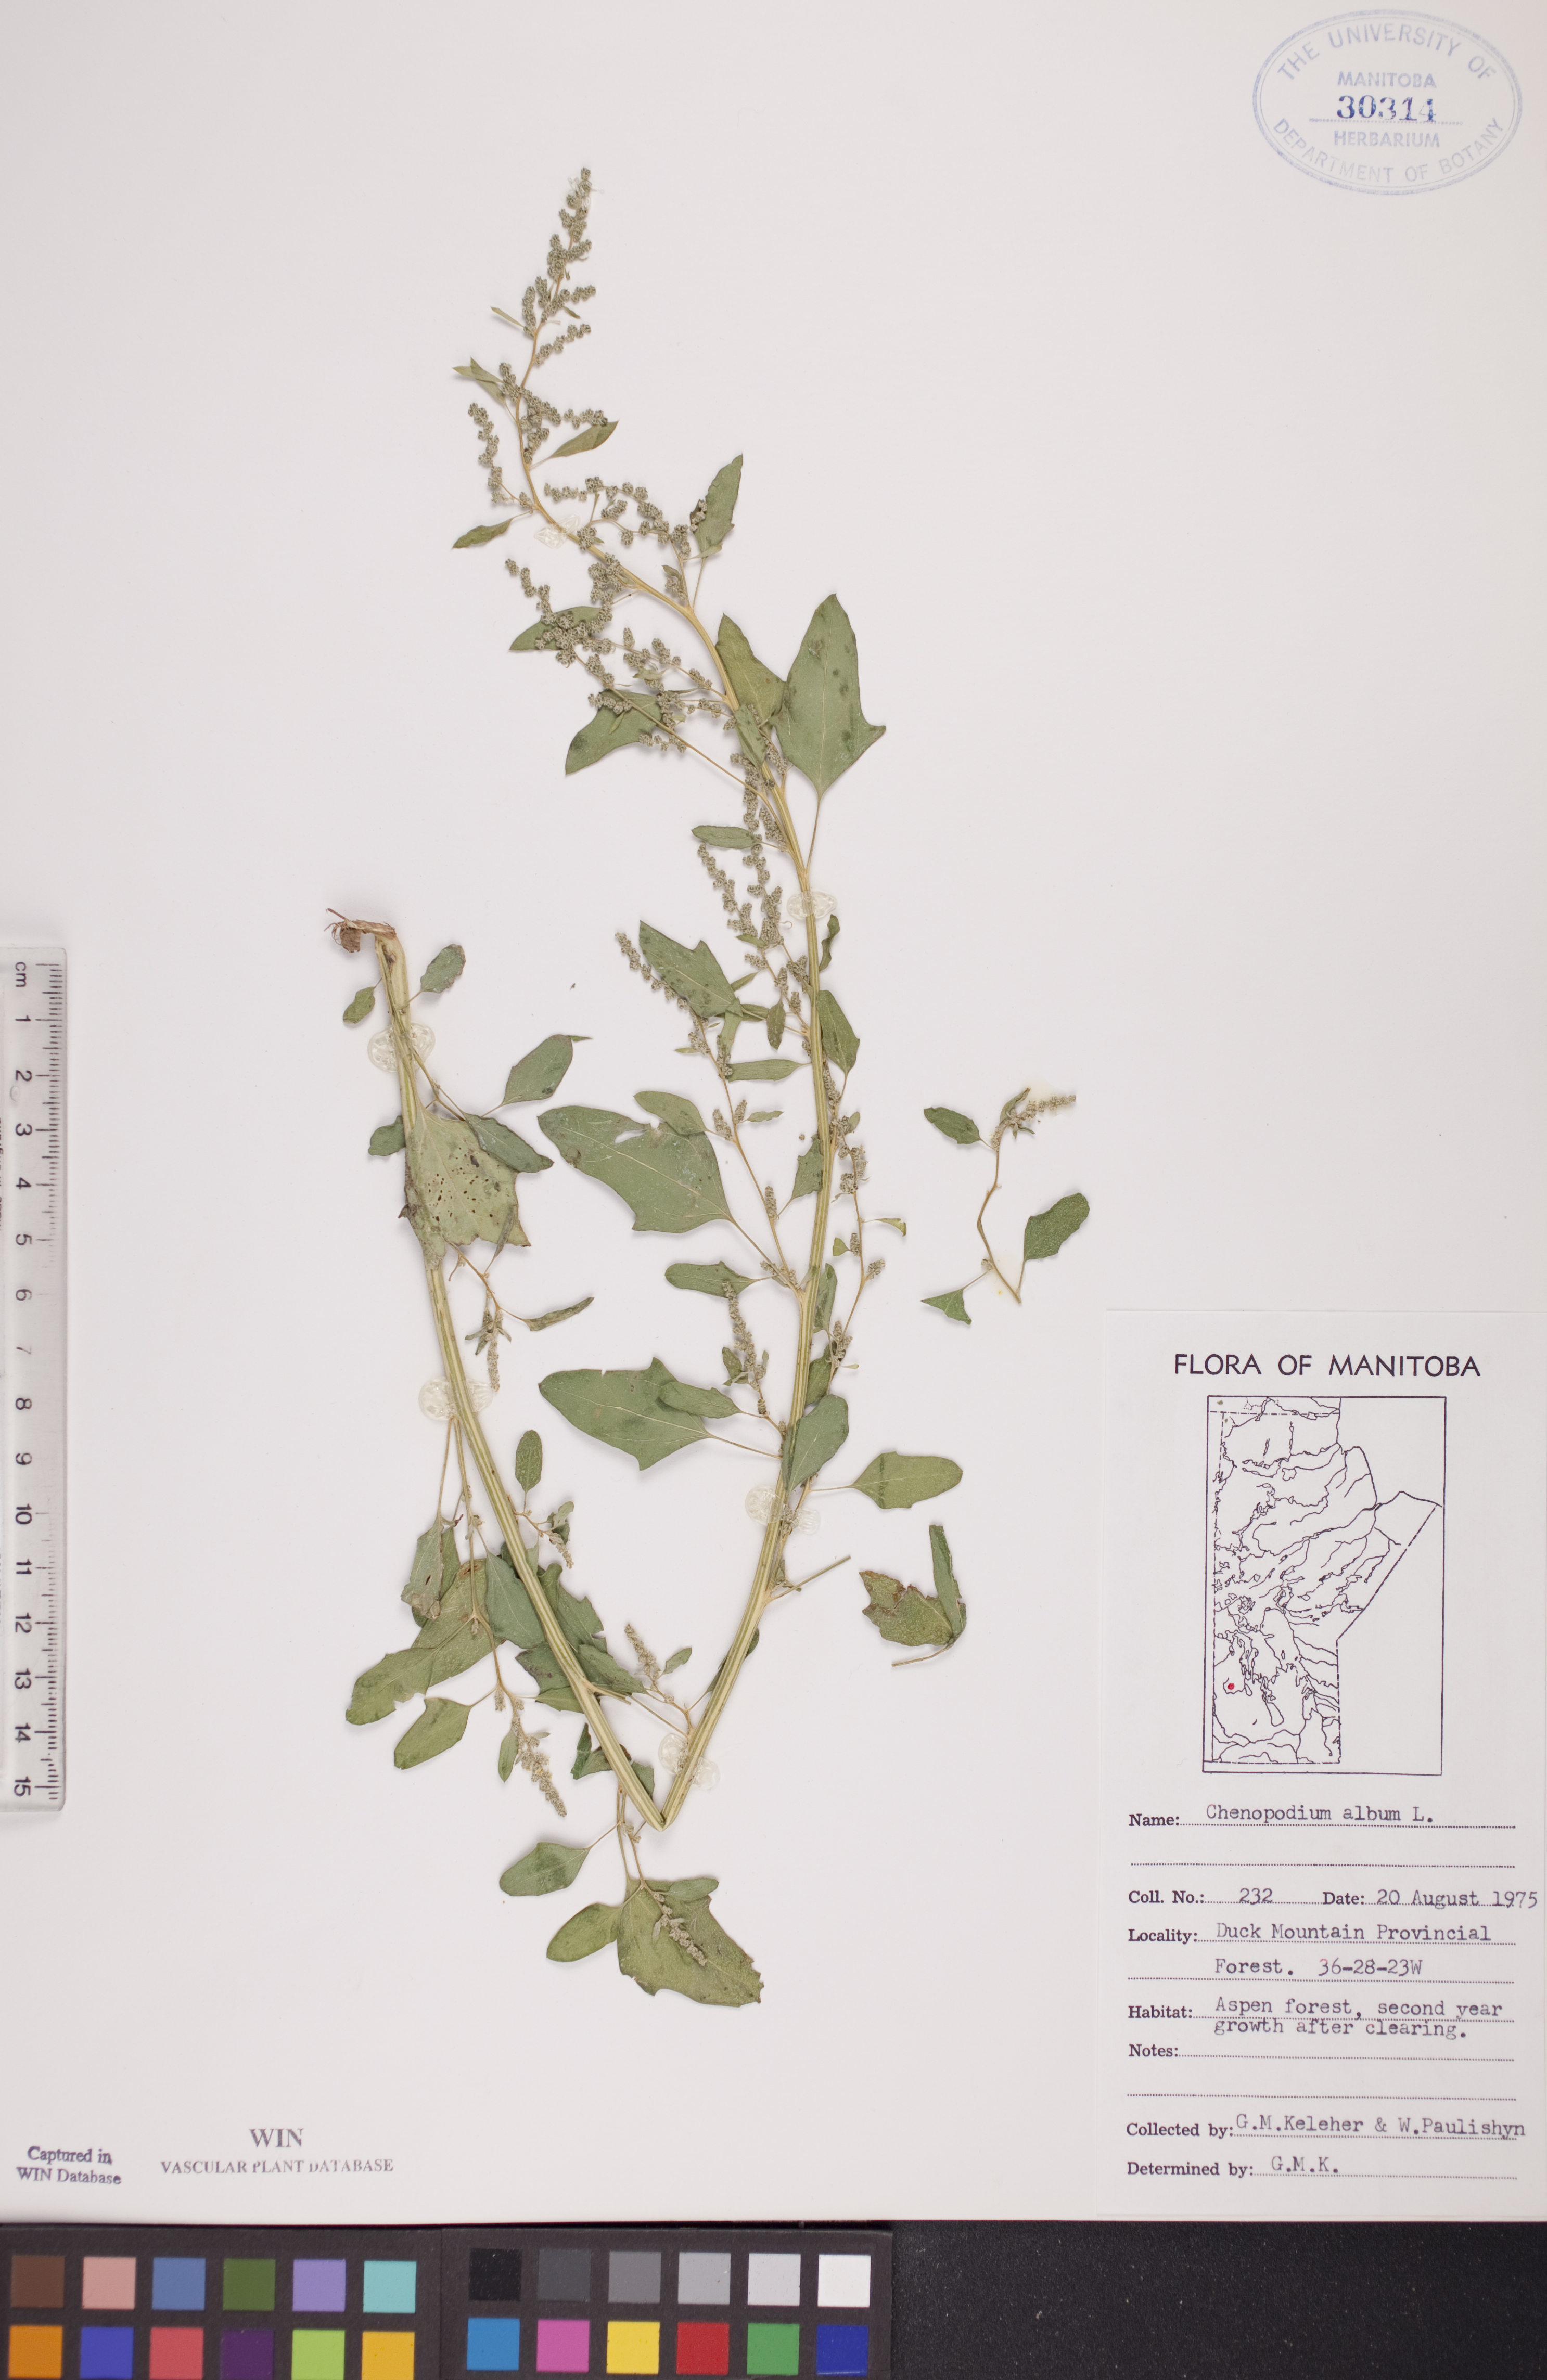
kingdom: Plantae
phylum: Tracheophyta
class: Magnoliopsida
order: Caryophyllales
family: Amaranthaceae
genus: Chenopodium
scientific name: Chenopodium album
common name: Fat-hen
